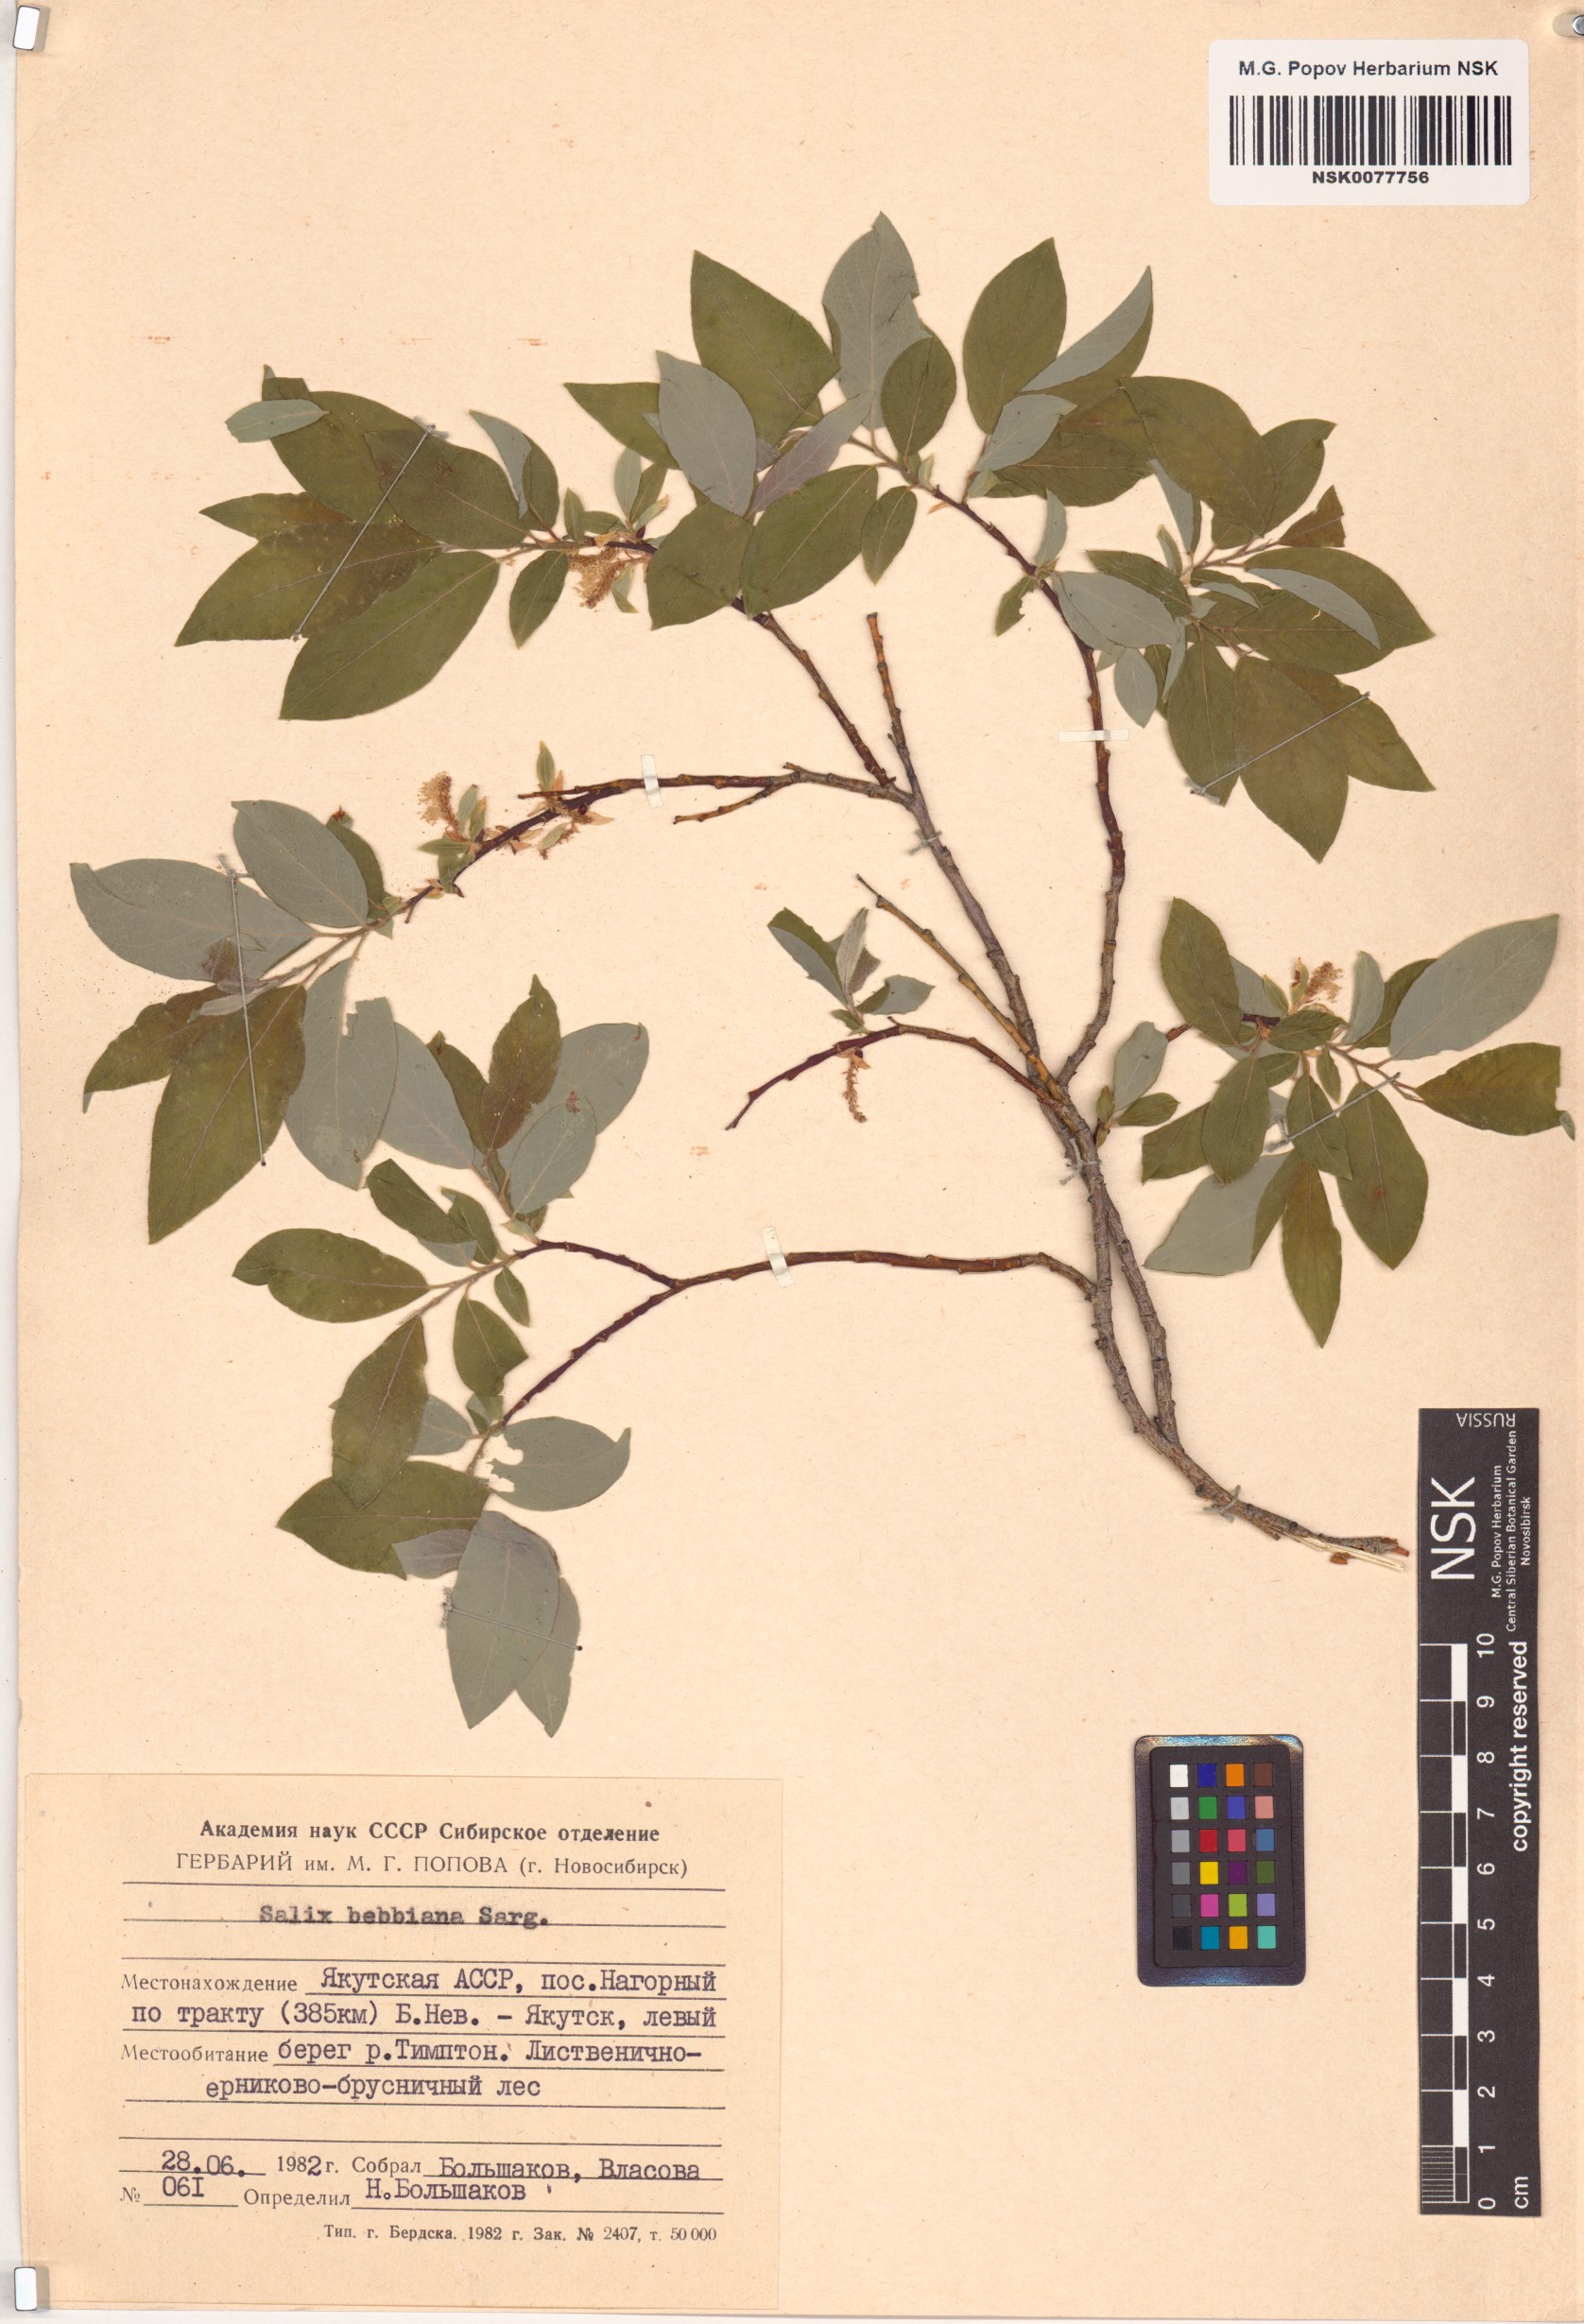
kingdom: Plantae
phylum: Tracheophyta
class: Magnoliopsida
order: Malpighiales
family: Salicaceae
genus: Salix
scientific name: Salix bebbiana
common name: Bebb's willow
